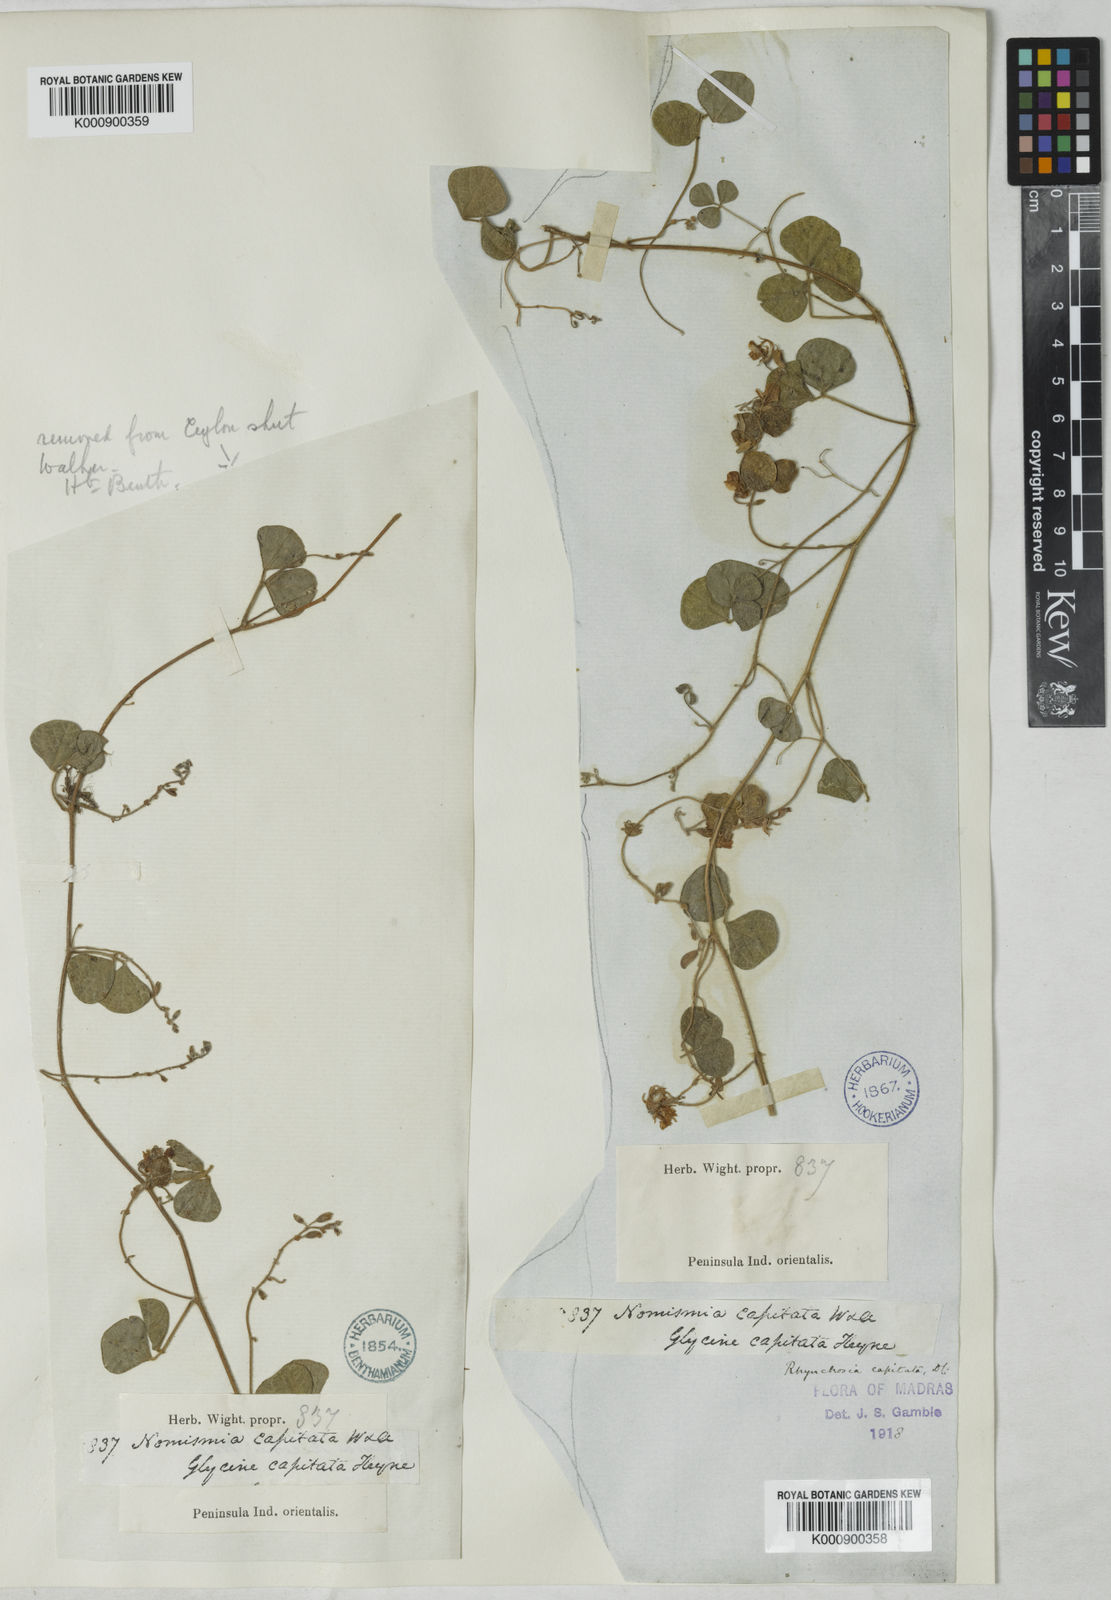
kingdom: Plantae
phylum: Tracheophyta
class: Magnoliopsida
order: Fabales
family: Fabaceae
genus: Rhynchosia
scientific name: Rhynchosia capitata
